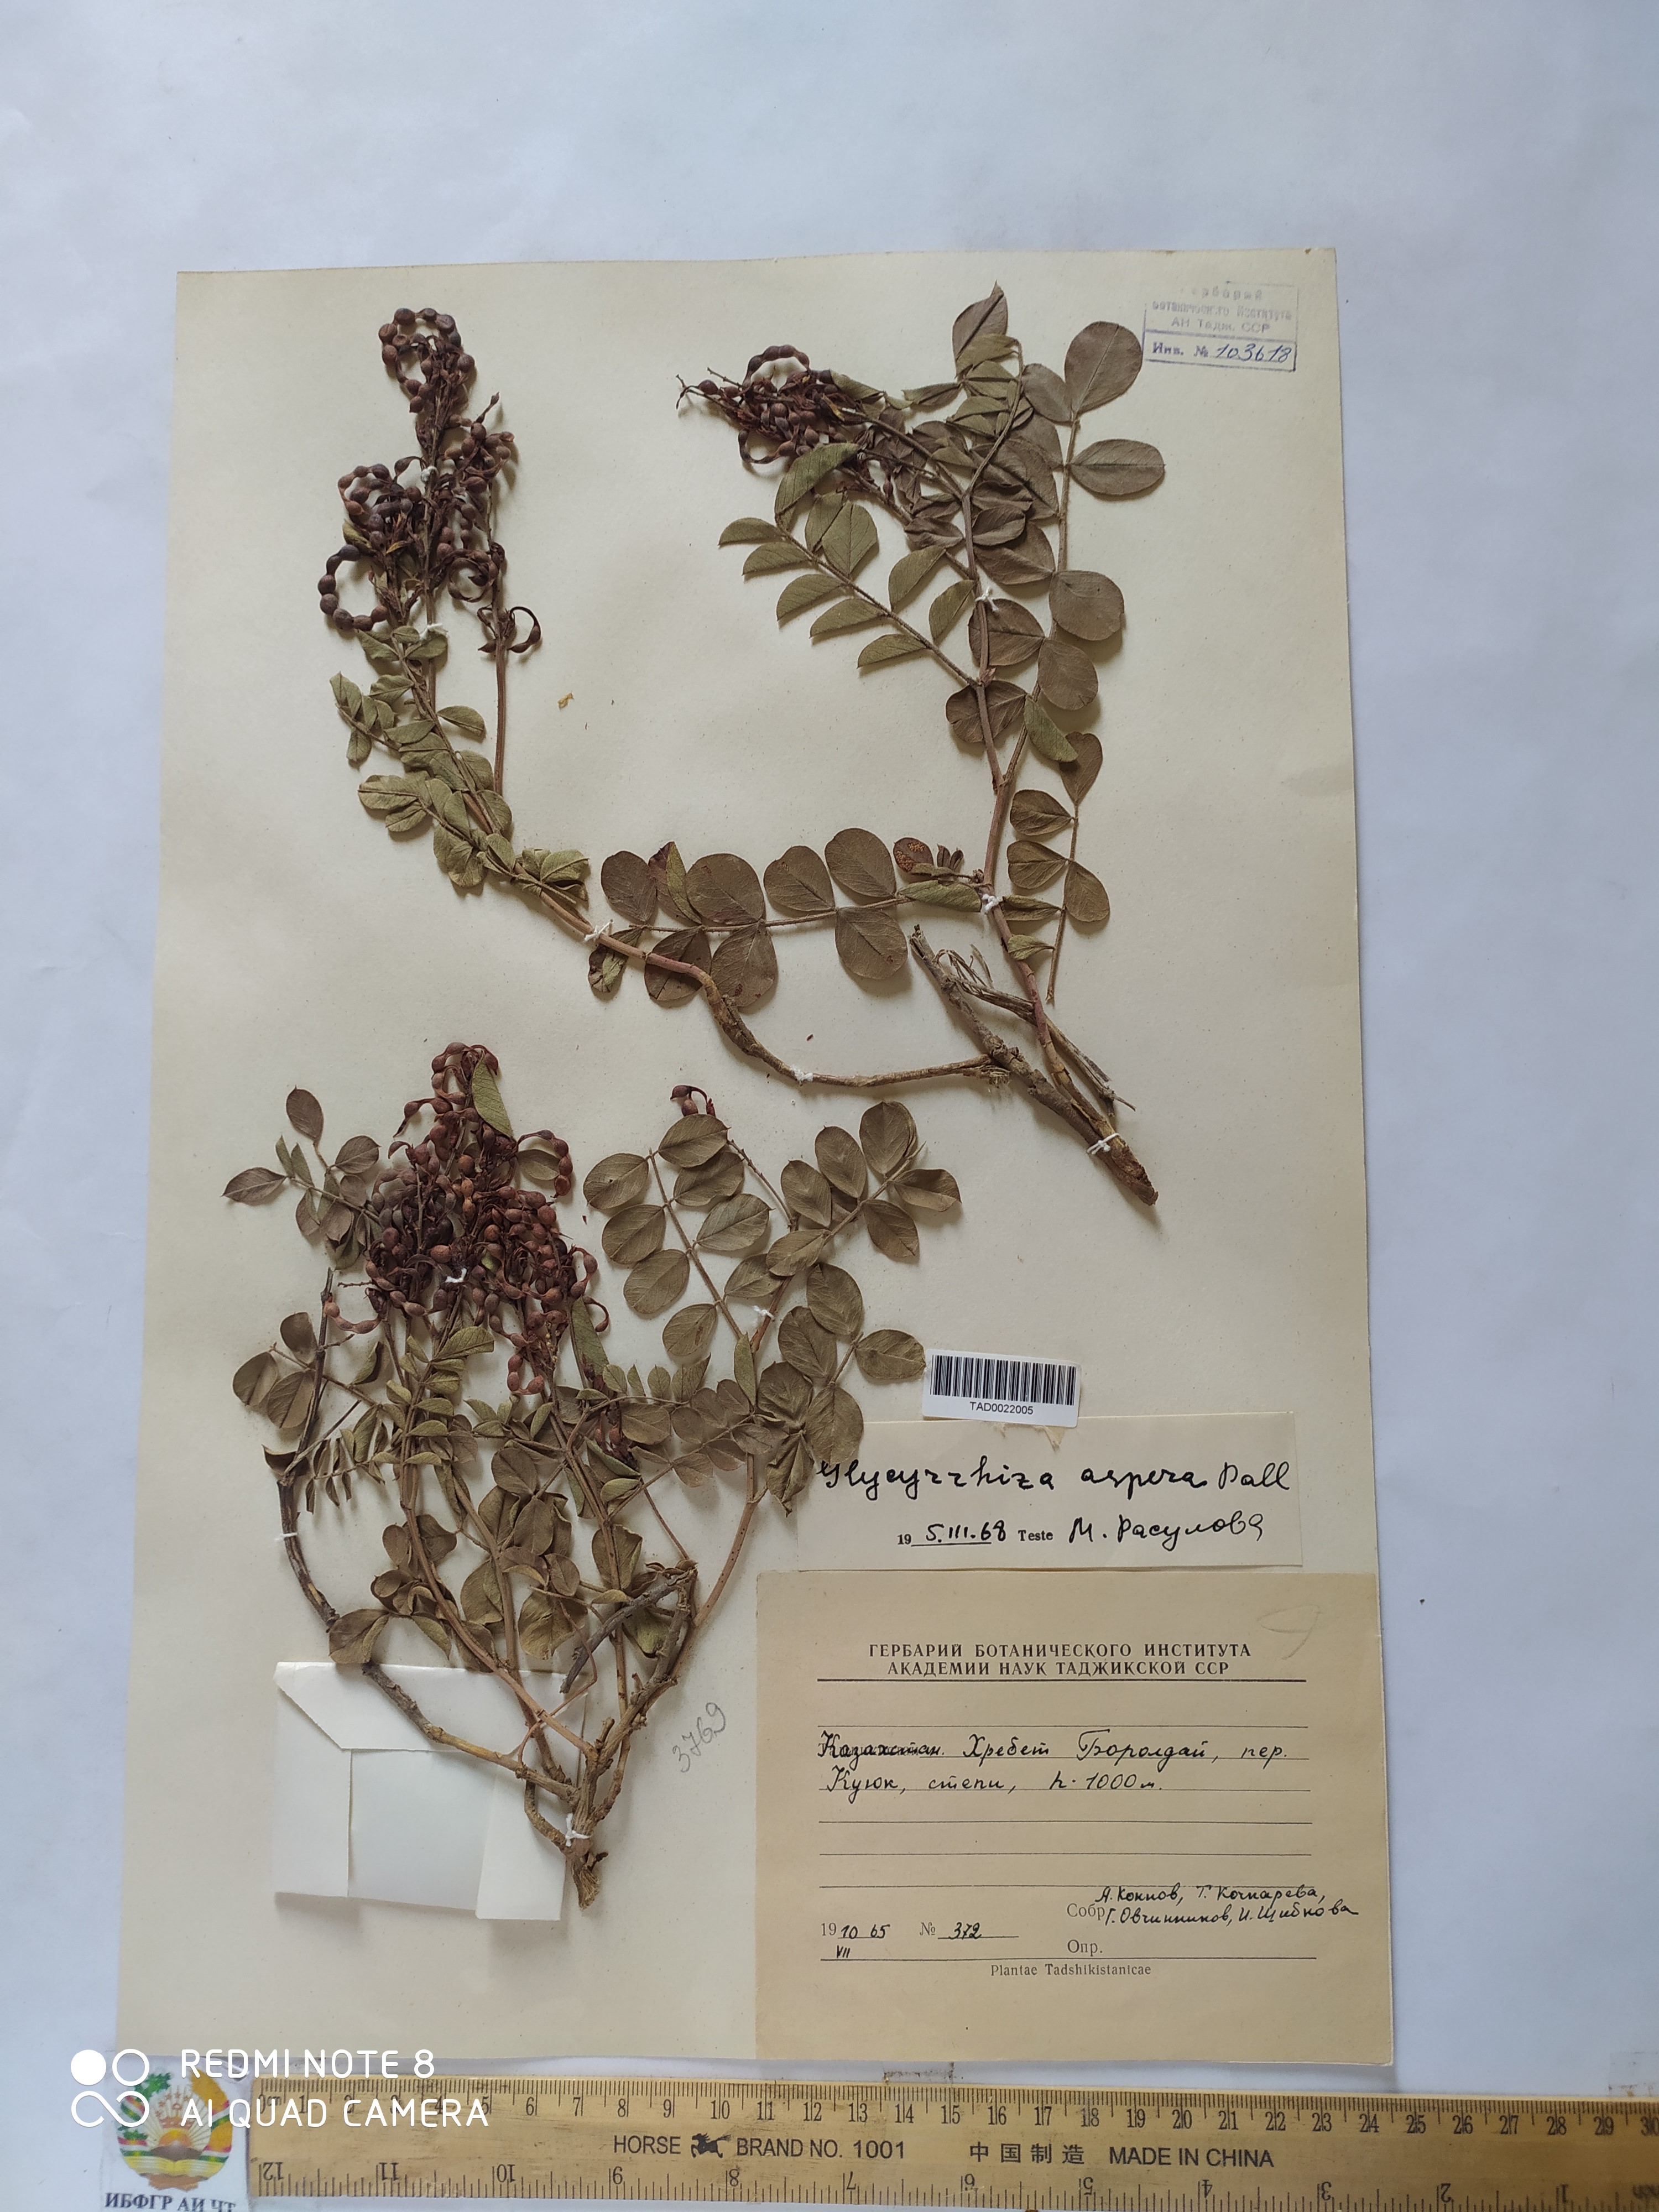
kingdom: Plantae
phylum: Tracheophyta
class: Magnoliopsida
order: Fabales
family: Fabaceae
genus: Glycyrrhiza
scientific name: Glycyrrhiza aspera
